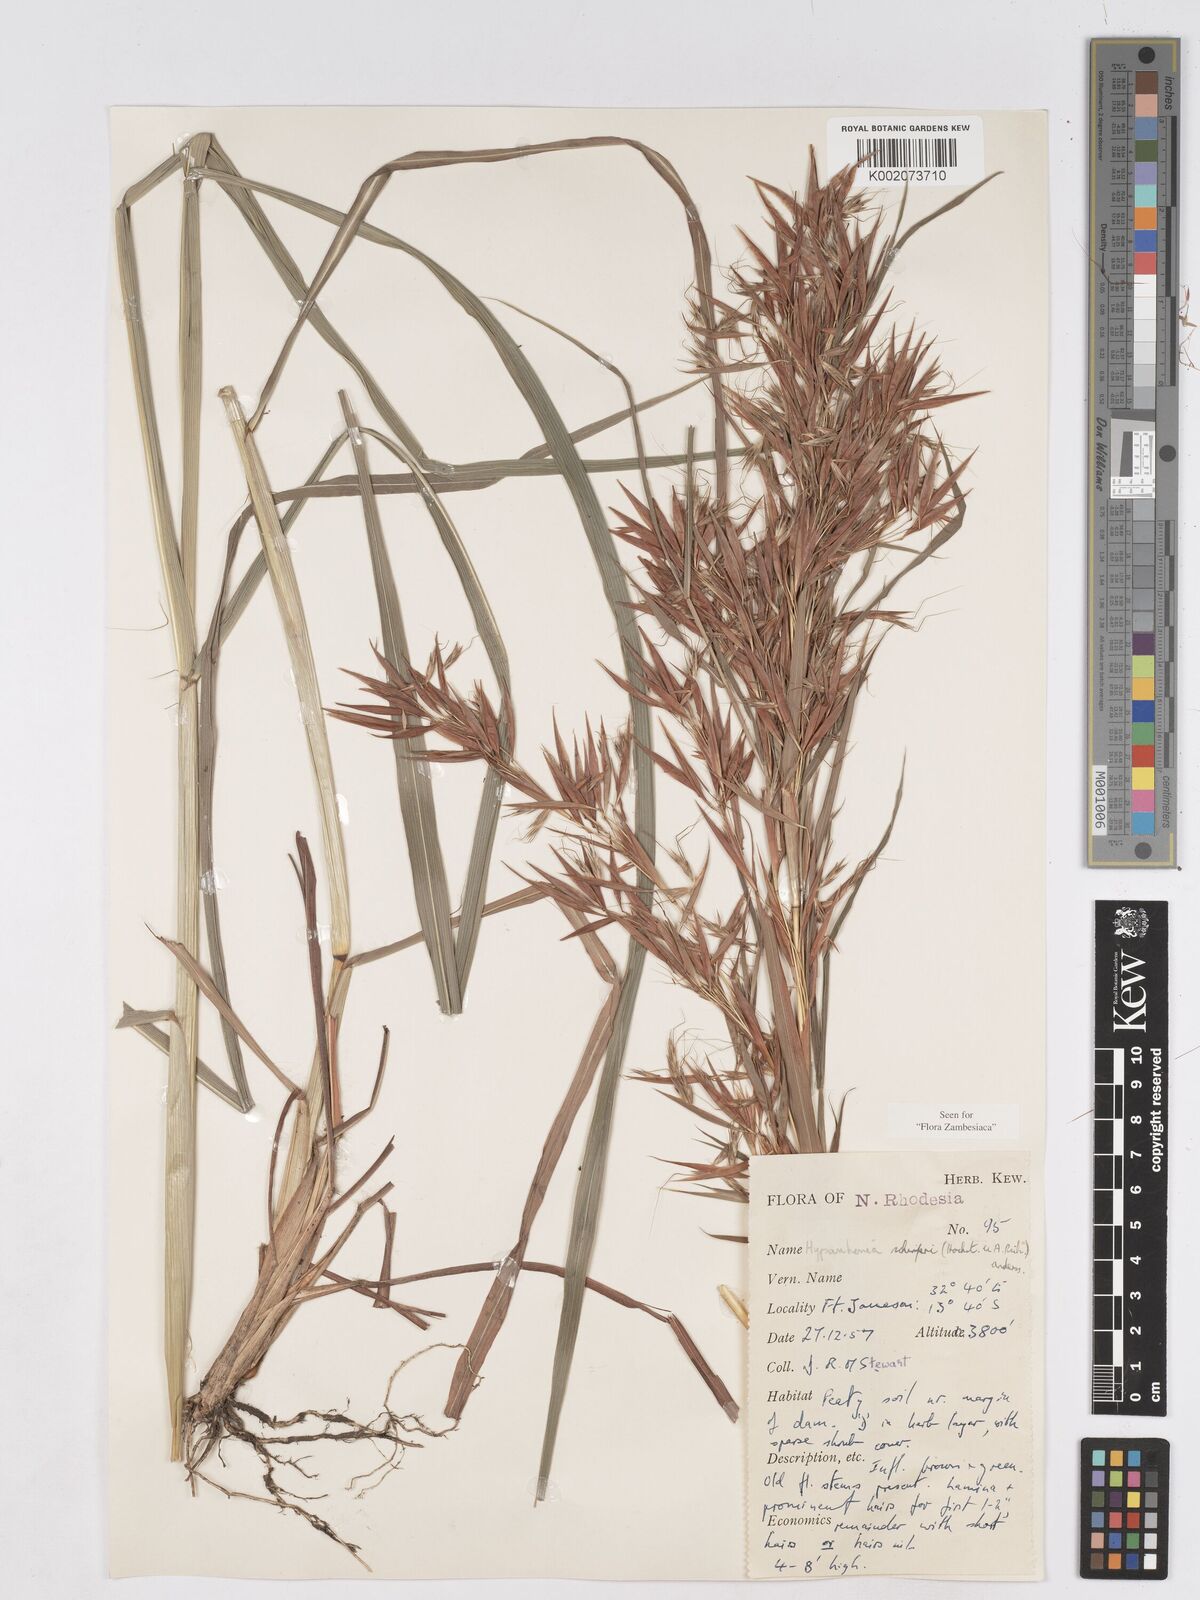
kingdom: Plantae
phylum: Tracheophyta
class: Liliopsida
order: Poales
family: Poaceae
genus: Hyparrhenia
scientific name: Hyparrhenia schimperi
